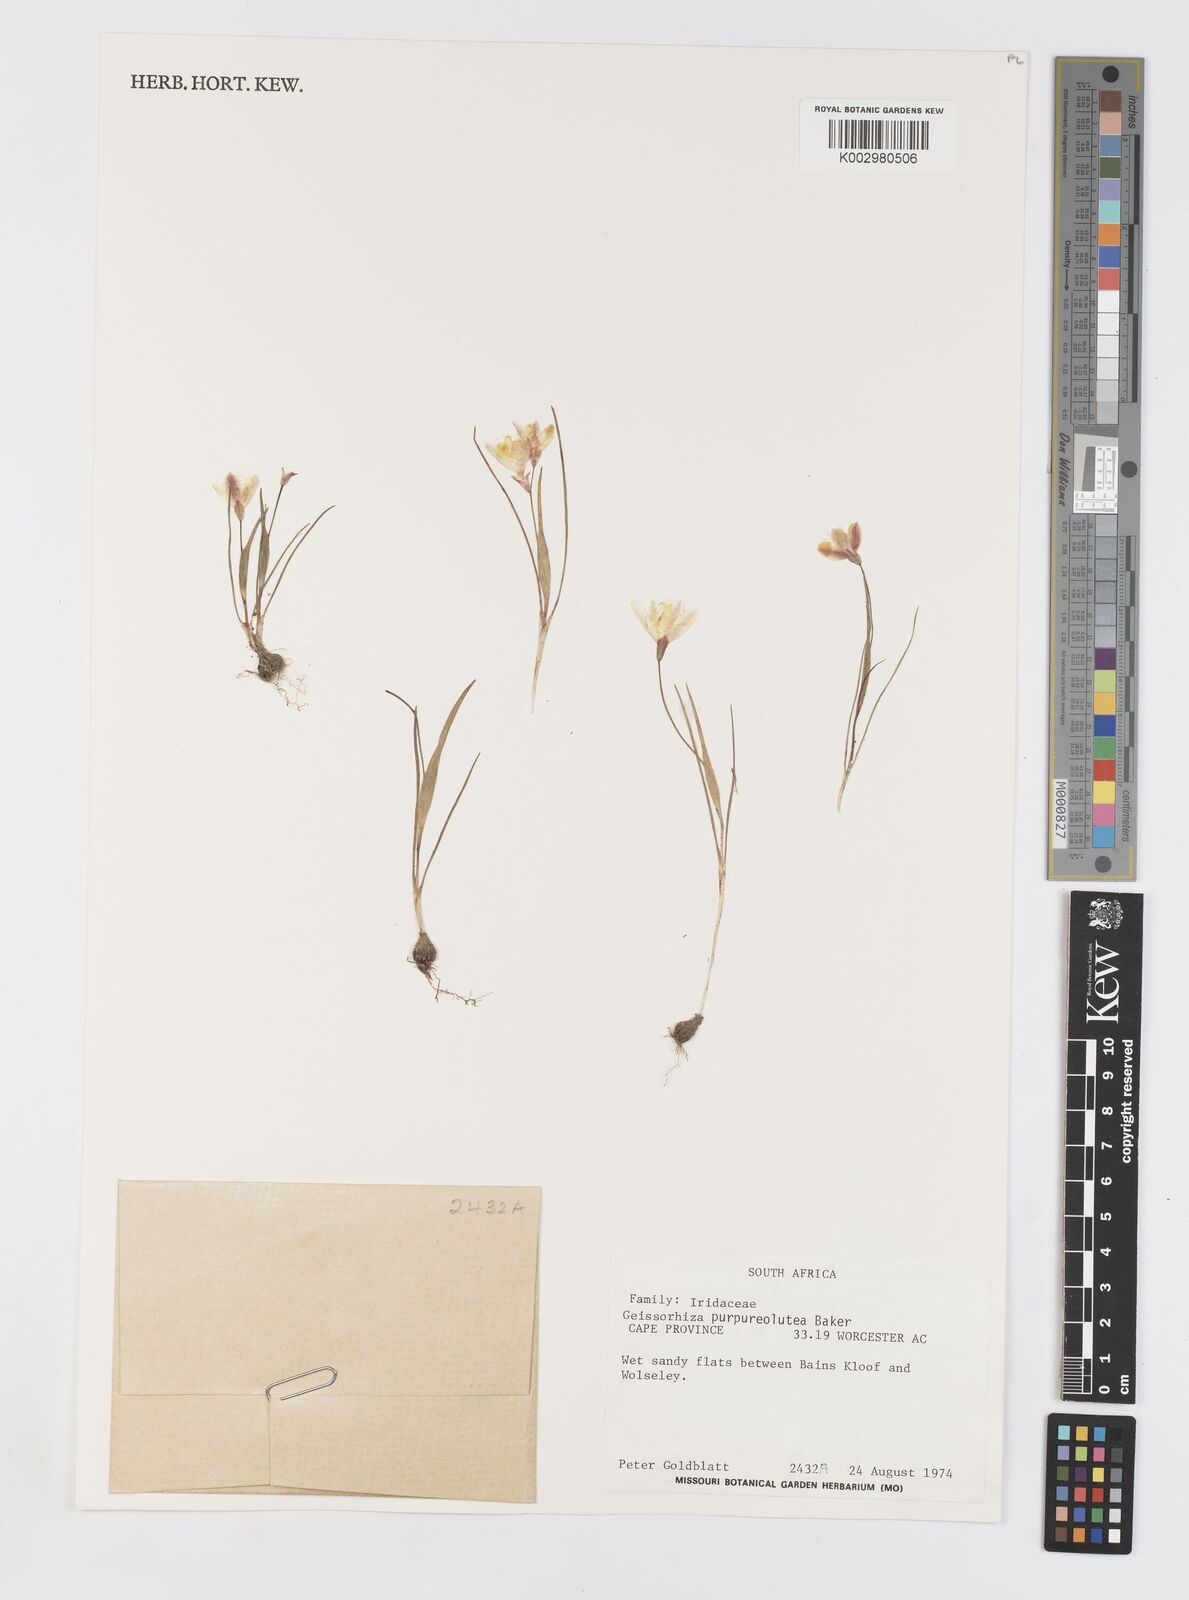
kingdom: Plantae
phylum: Tracheophyta
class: Liliopsida
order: Asparagales
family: Iridaceae
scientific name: Iridaceae
